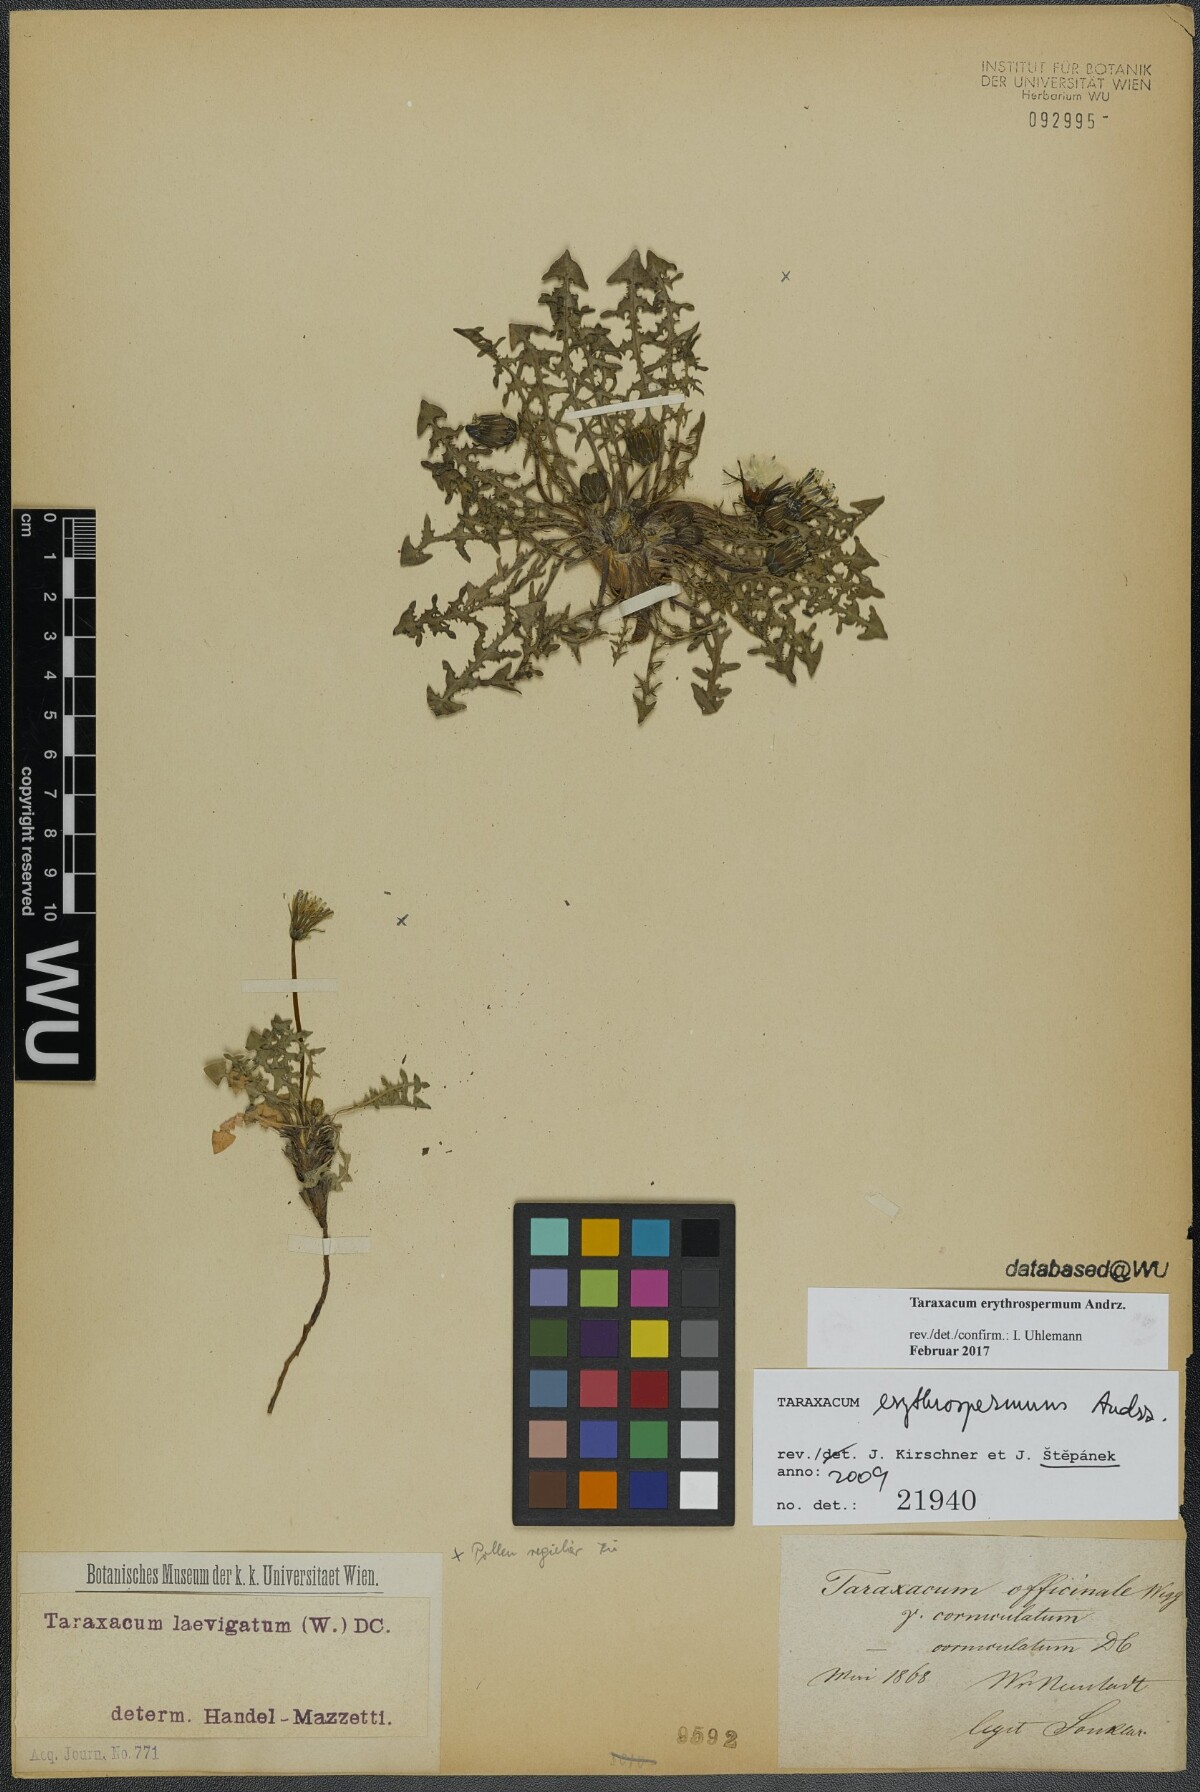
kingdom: Plantae
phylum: Tracheophyta
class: Magnoliopsida
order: Asterales
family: Asteraceae
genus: Taraxacum
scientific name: Taraxacum erythrospermum
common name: Rock dandelion
